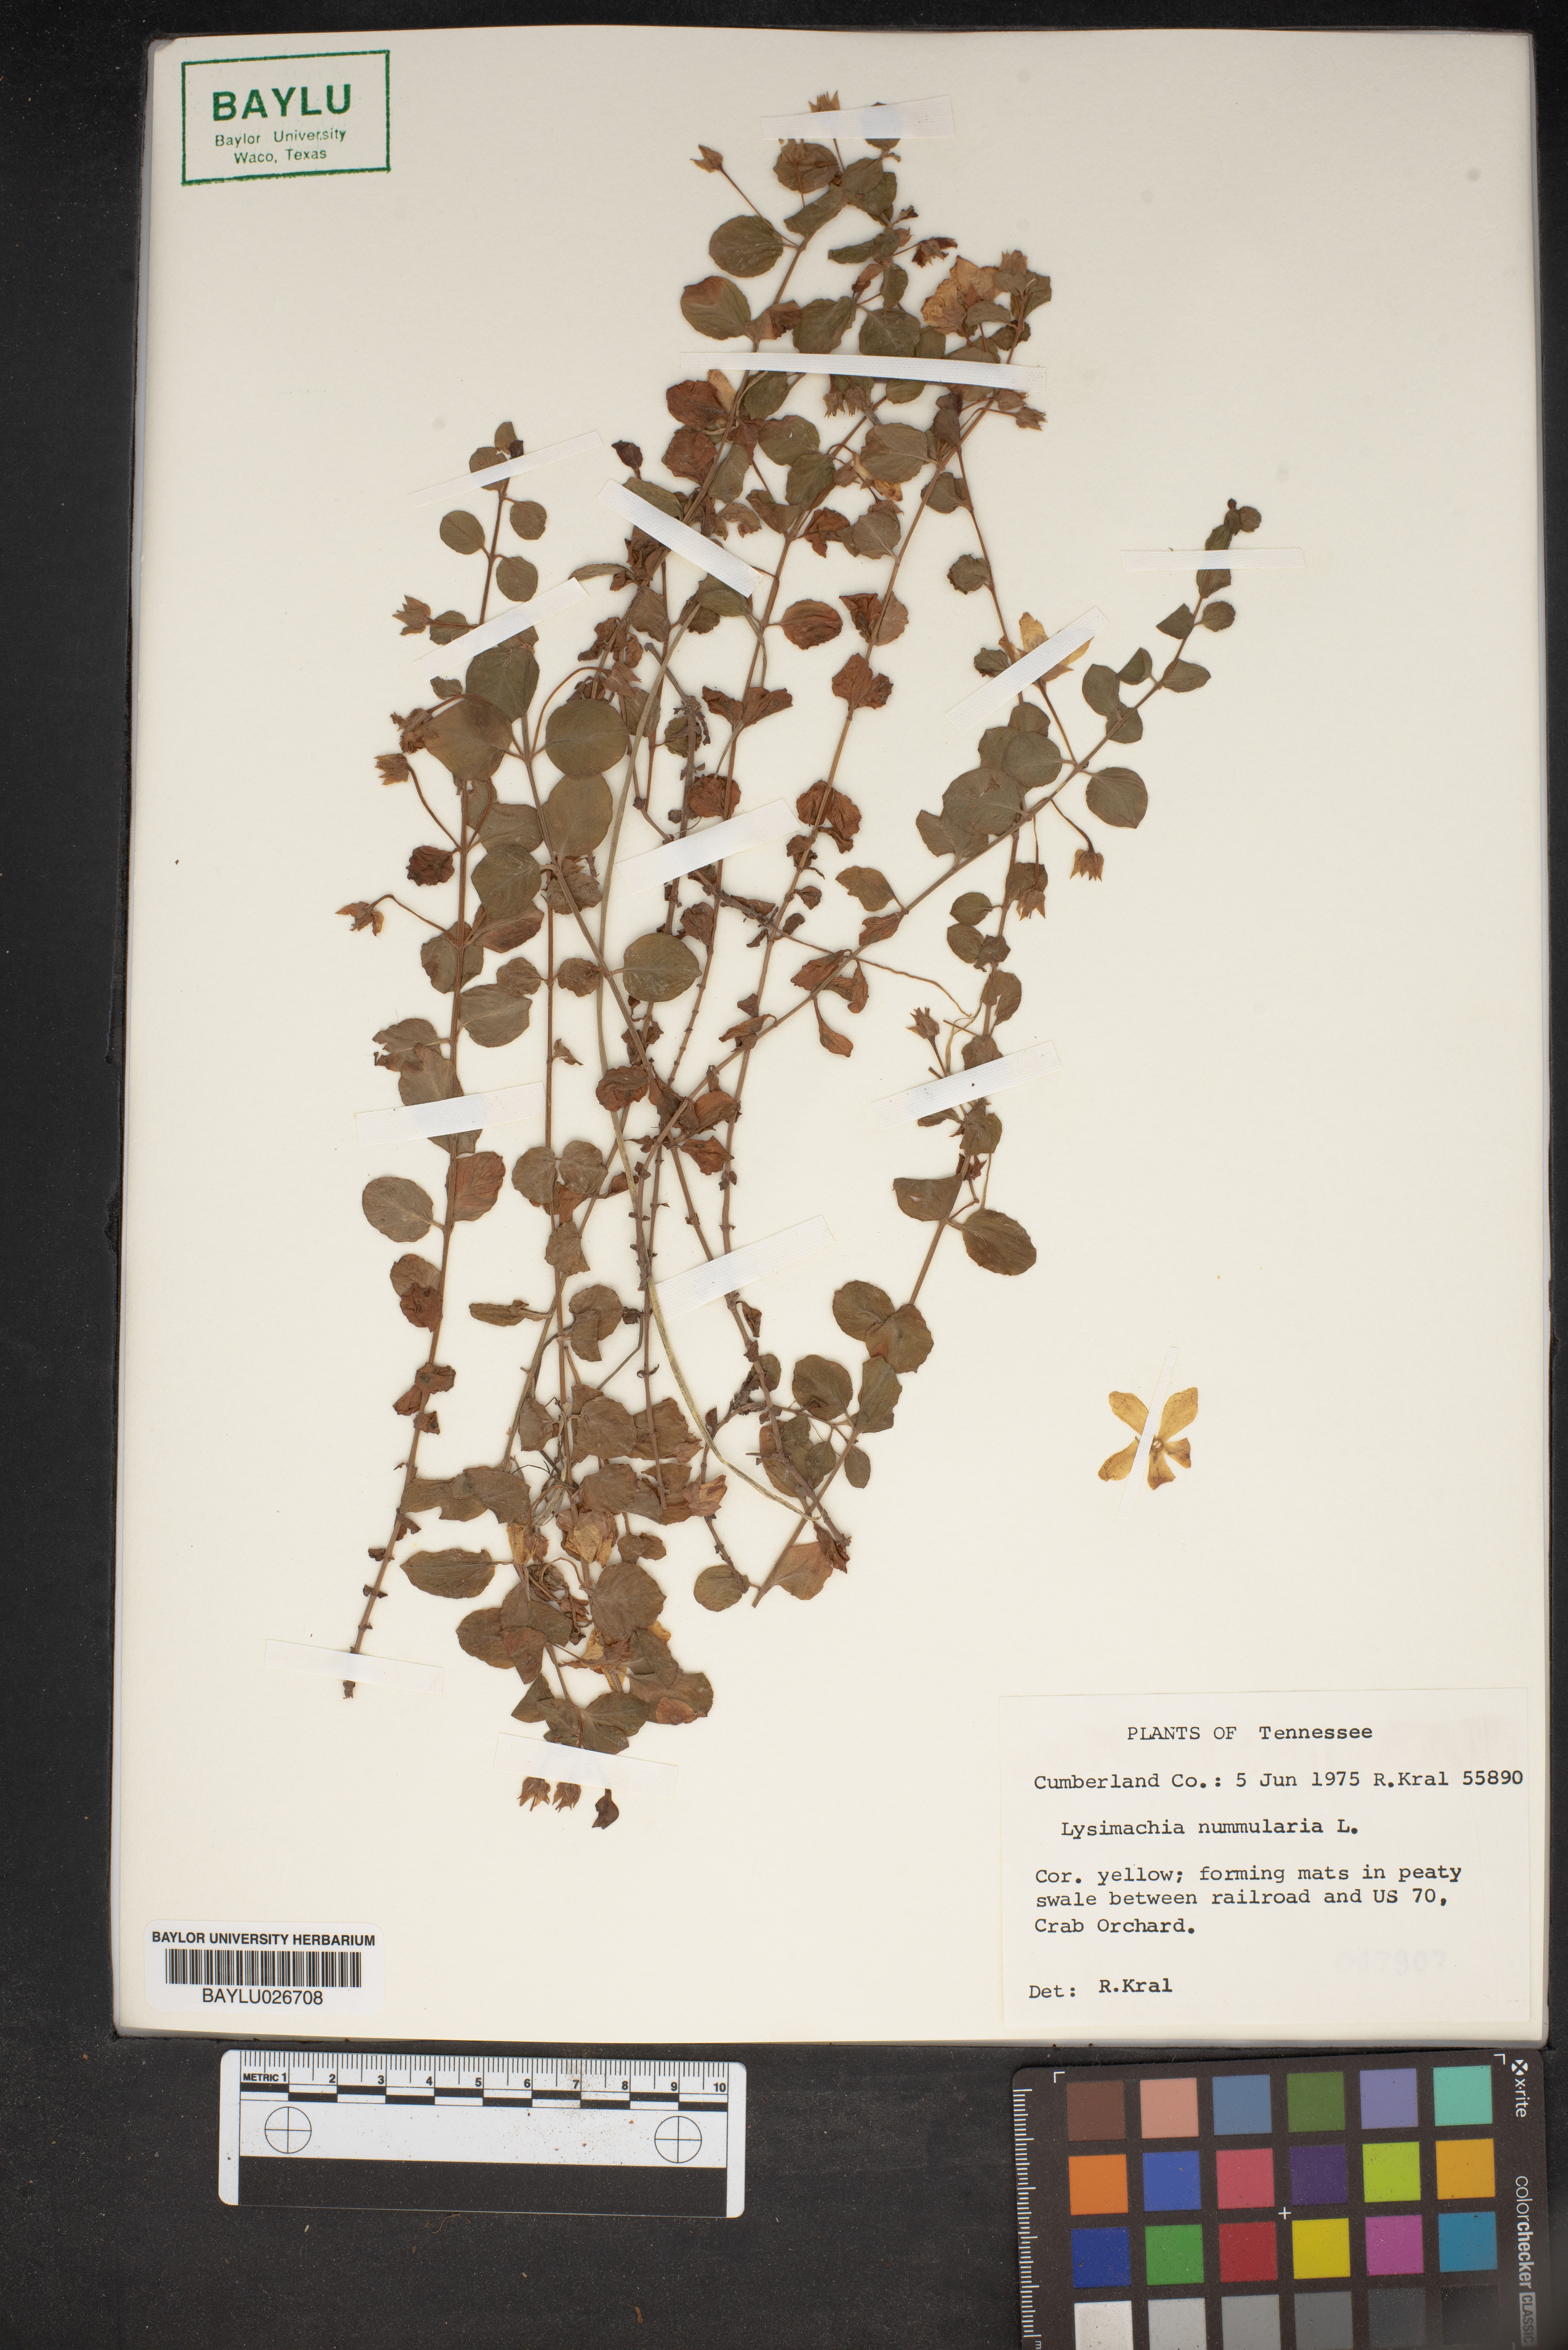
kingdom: Plantae
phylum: Tracheophyta
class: Magnoliopsida
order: Ericales
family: Primulaceae
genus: Lysimachia
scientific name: Lysimachia nummularia
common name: Moneywort
